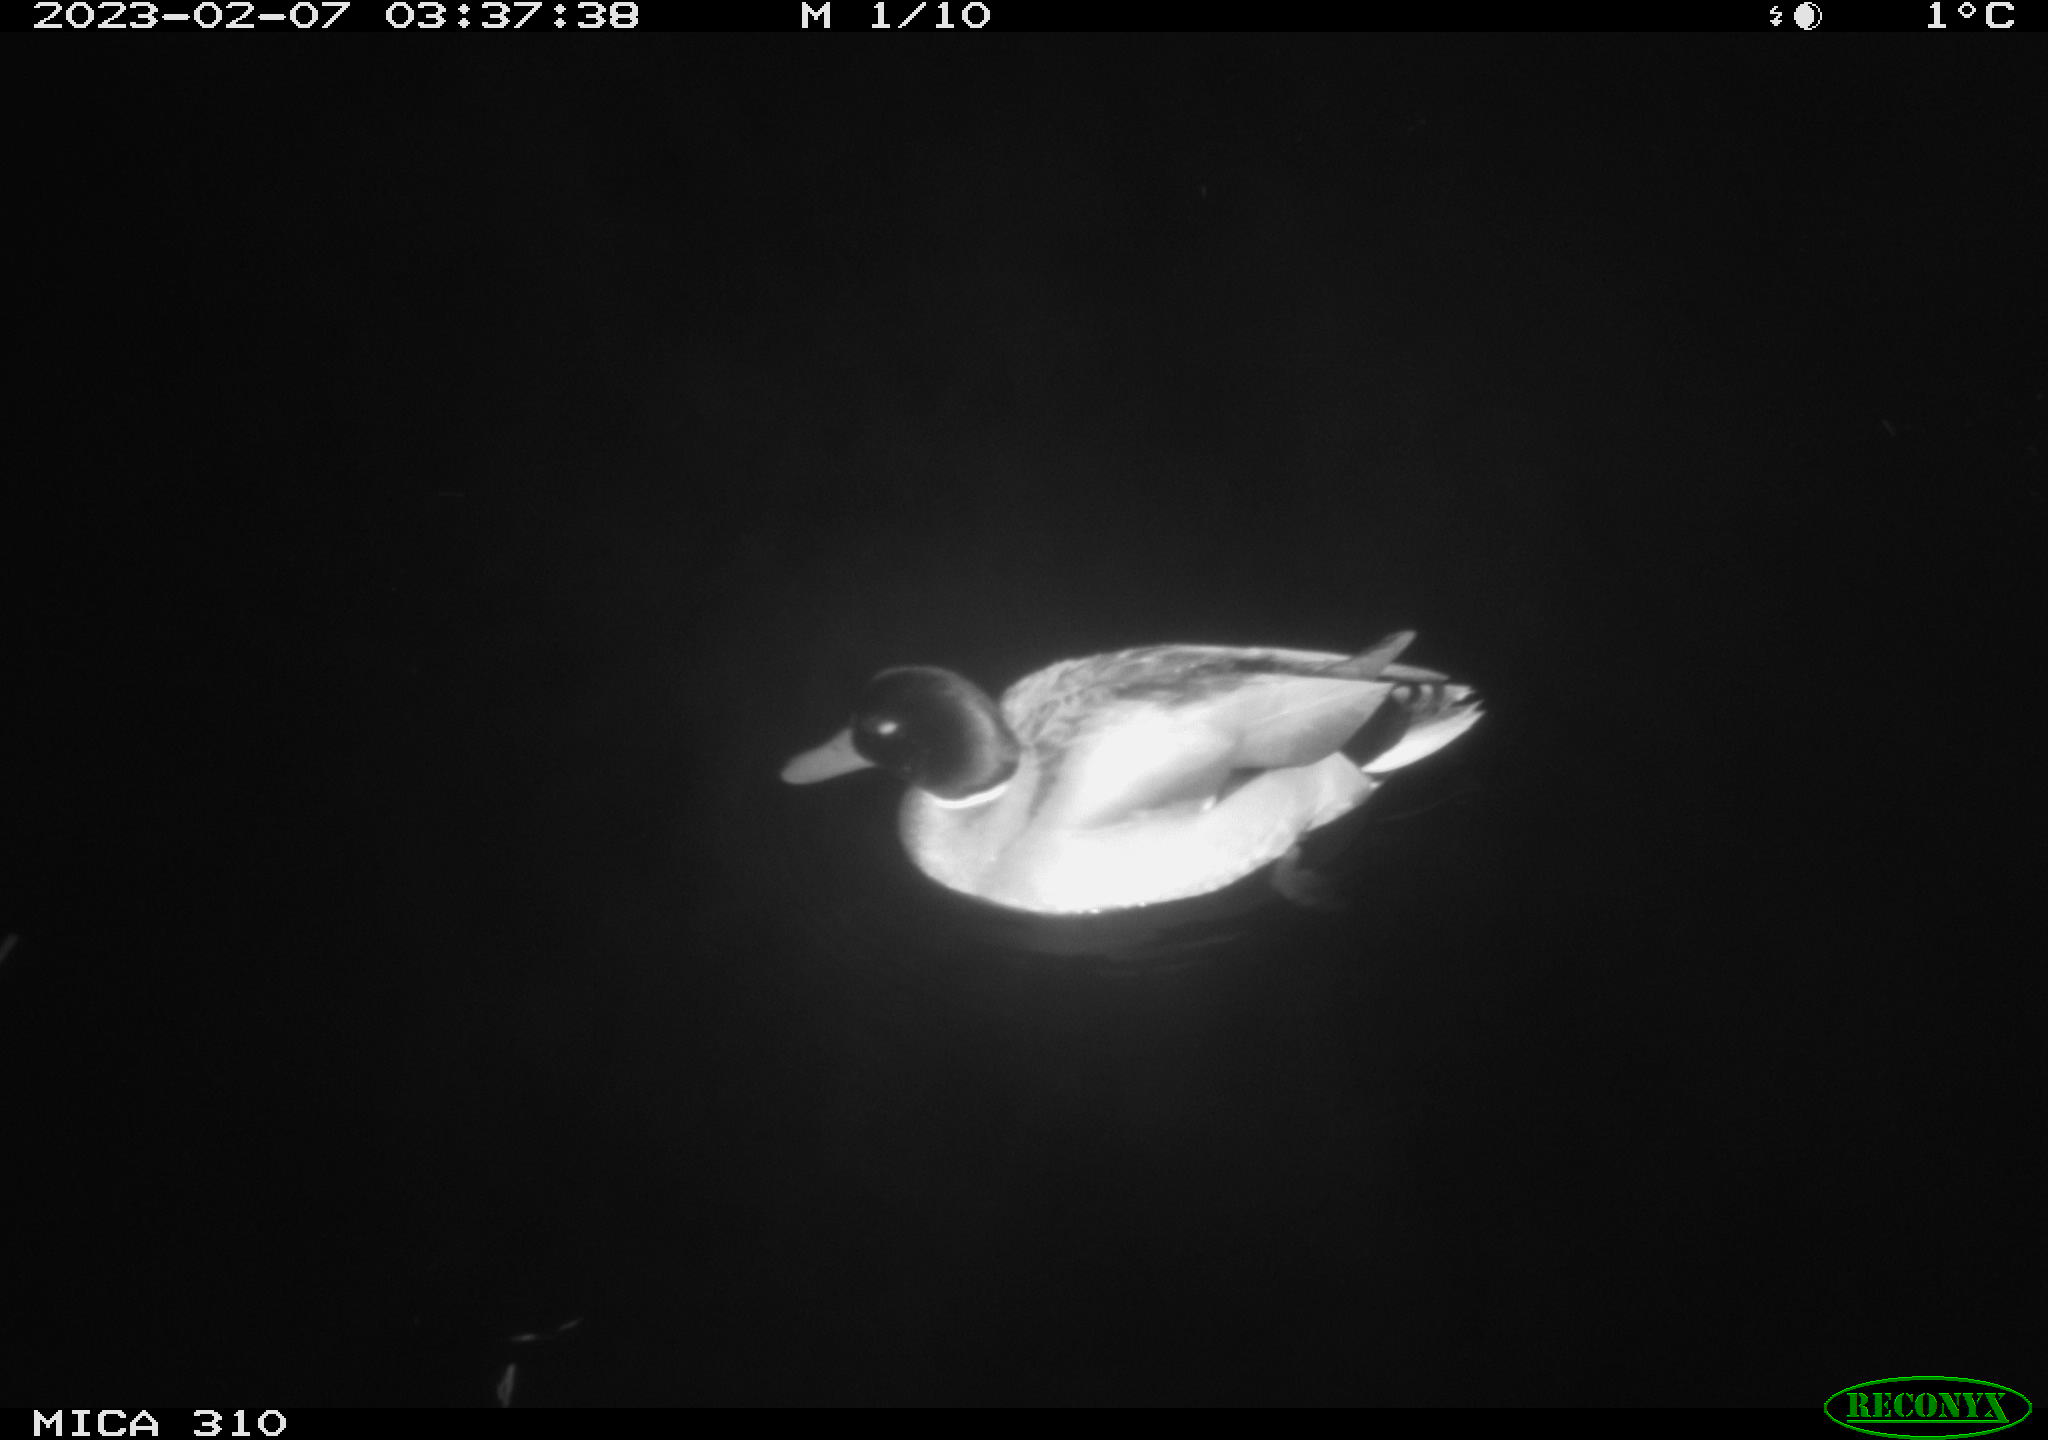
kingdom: Animalia
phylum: Chordata
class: Mammalia
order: Rodentia
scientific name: Rodentia
